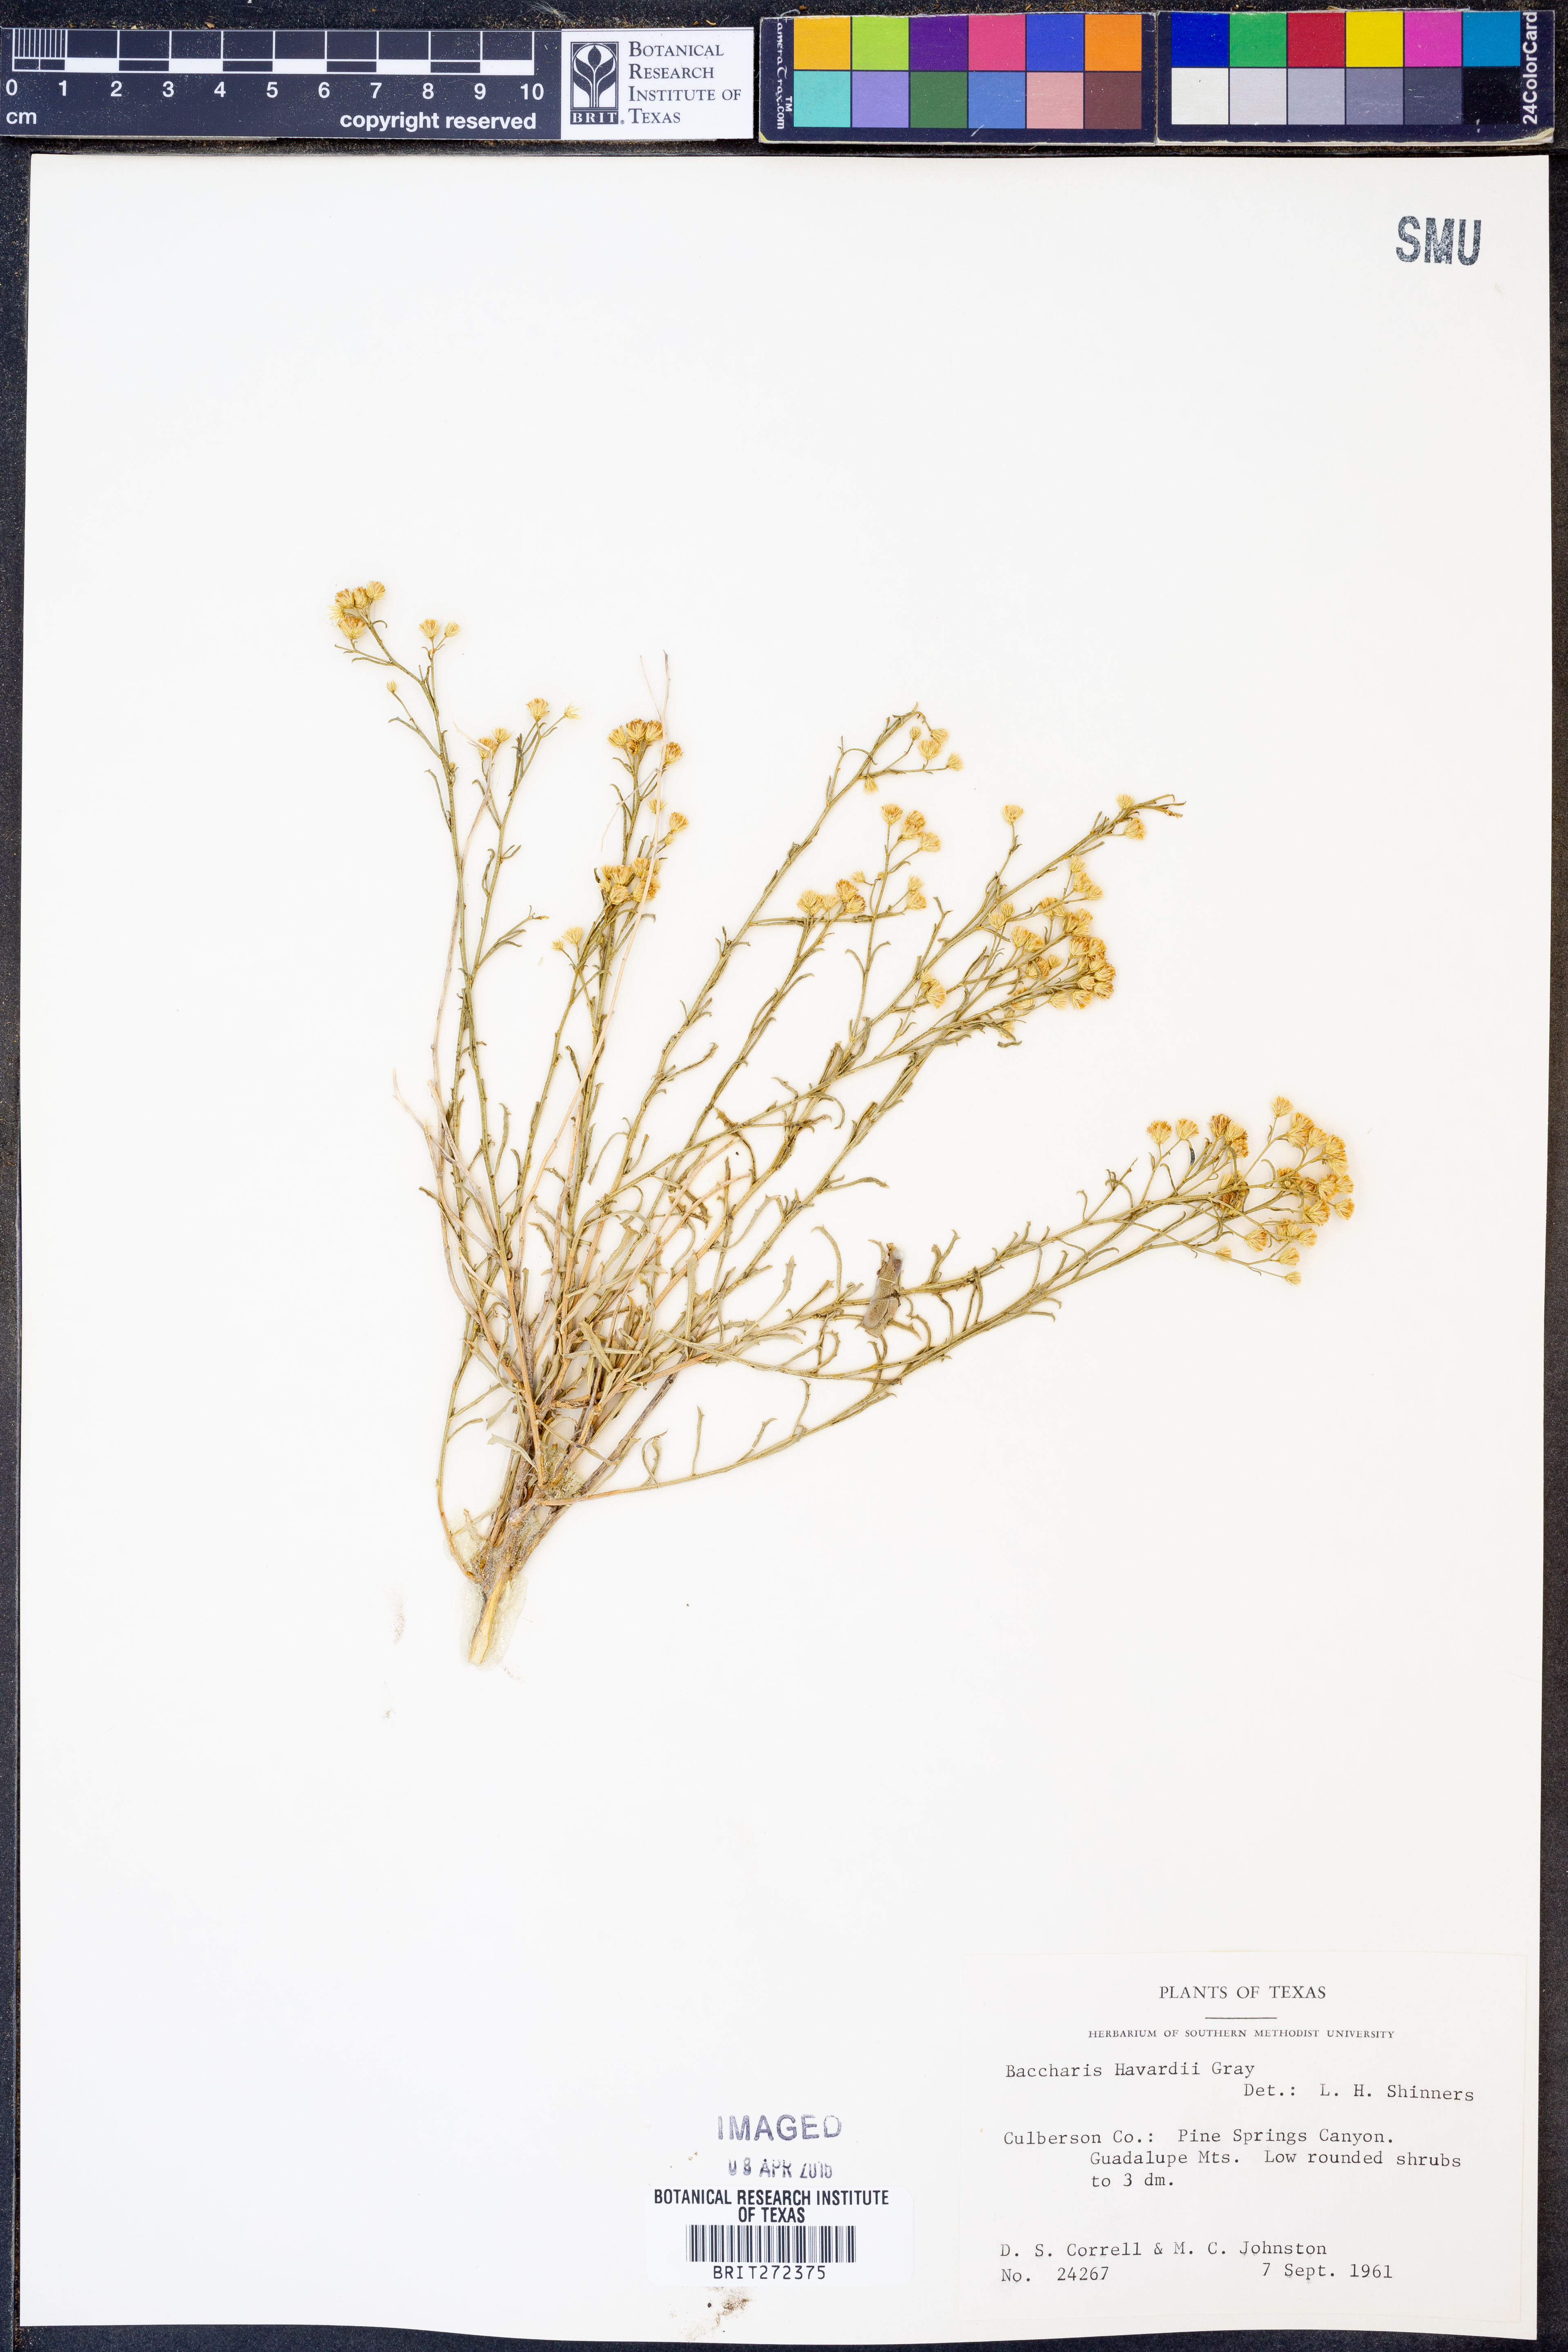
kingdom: Plantae
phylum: Tracheophyta
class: Magnoliopsida
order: Asterales
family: Asteraceae
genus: Baccharis
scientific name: Baccharis havardii
